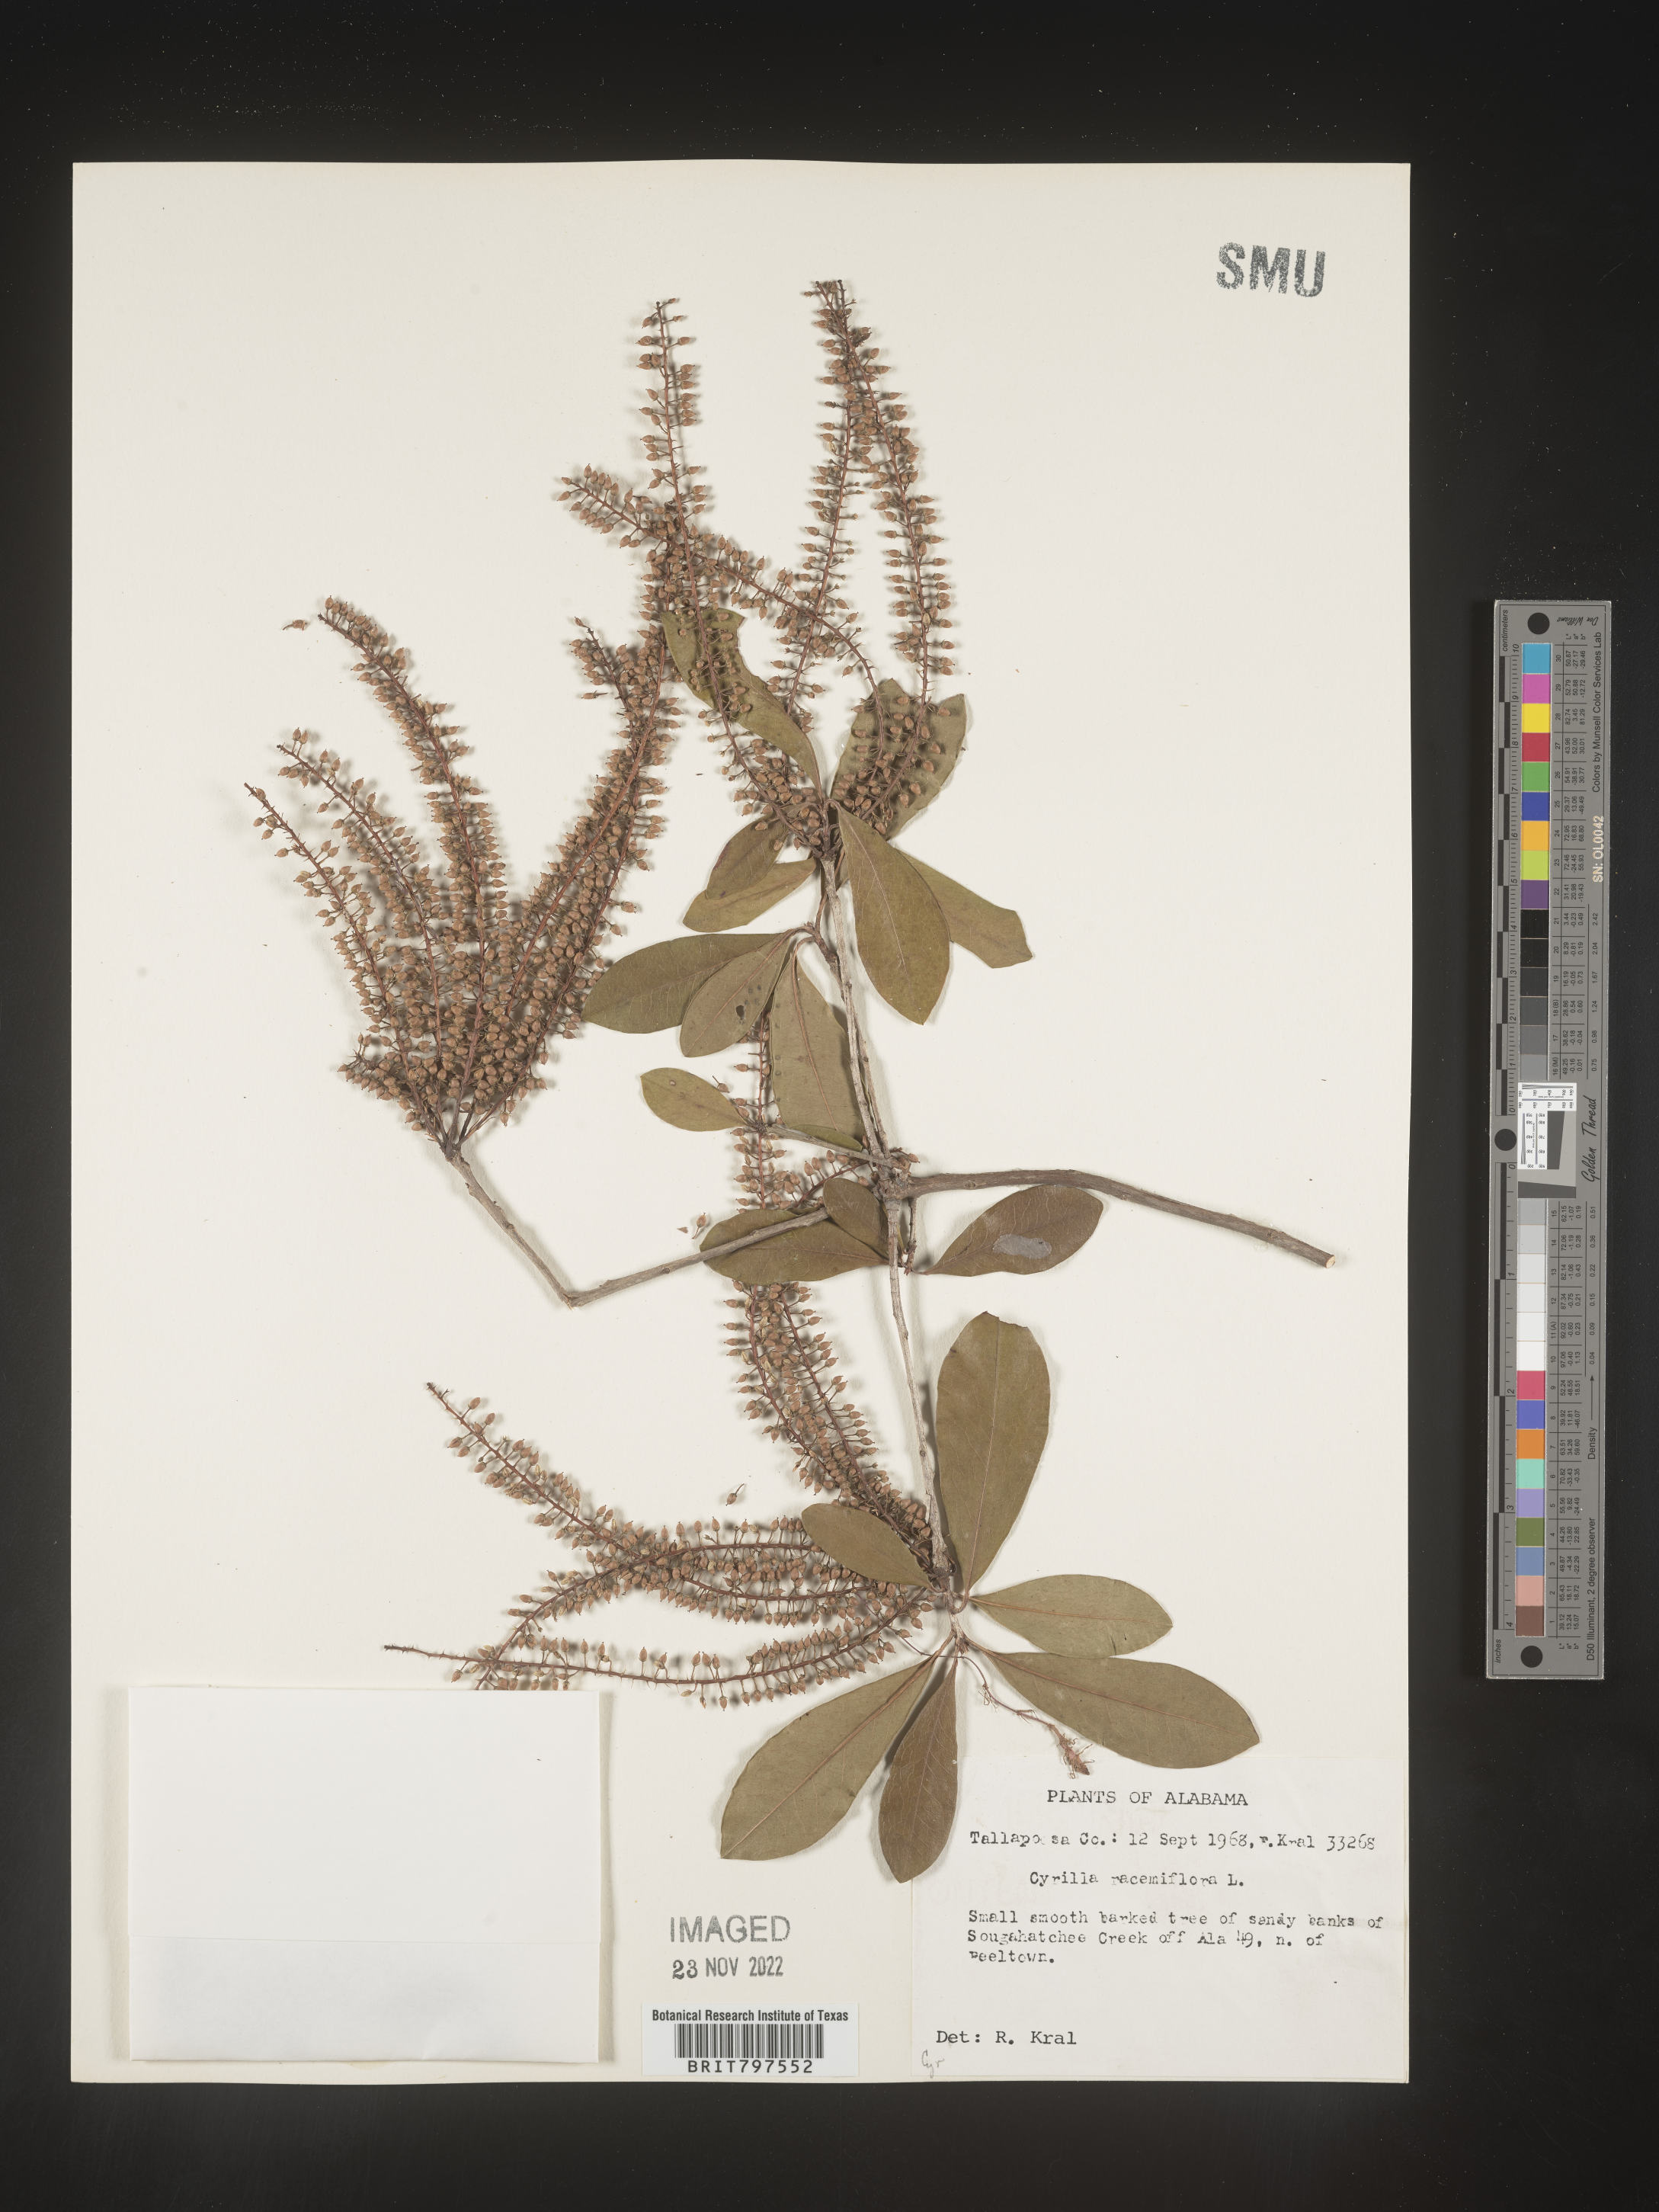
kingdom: Plantae
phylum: Tracheophyta
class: Magnoliopsida
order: Ericales
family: Cyrillaceae
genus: Cyrilla
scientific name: Cyrilla racemiflora
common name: Black titi
